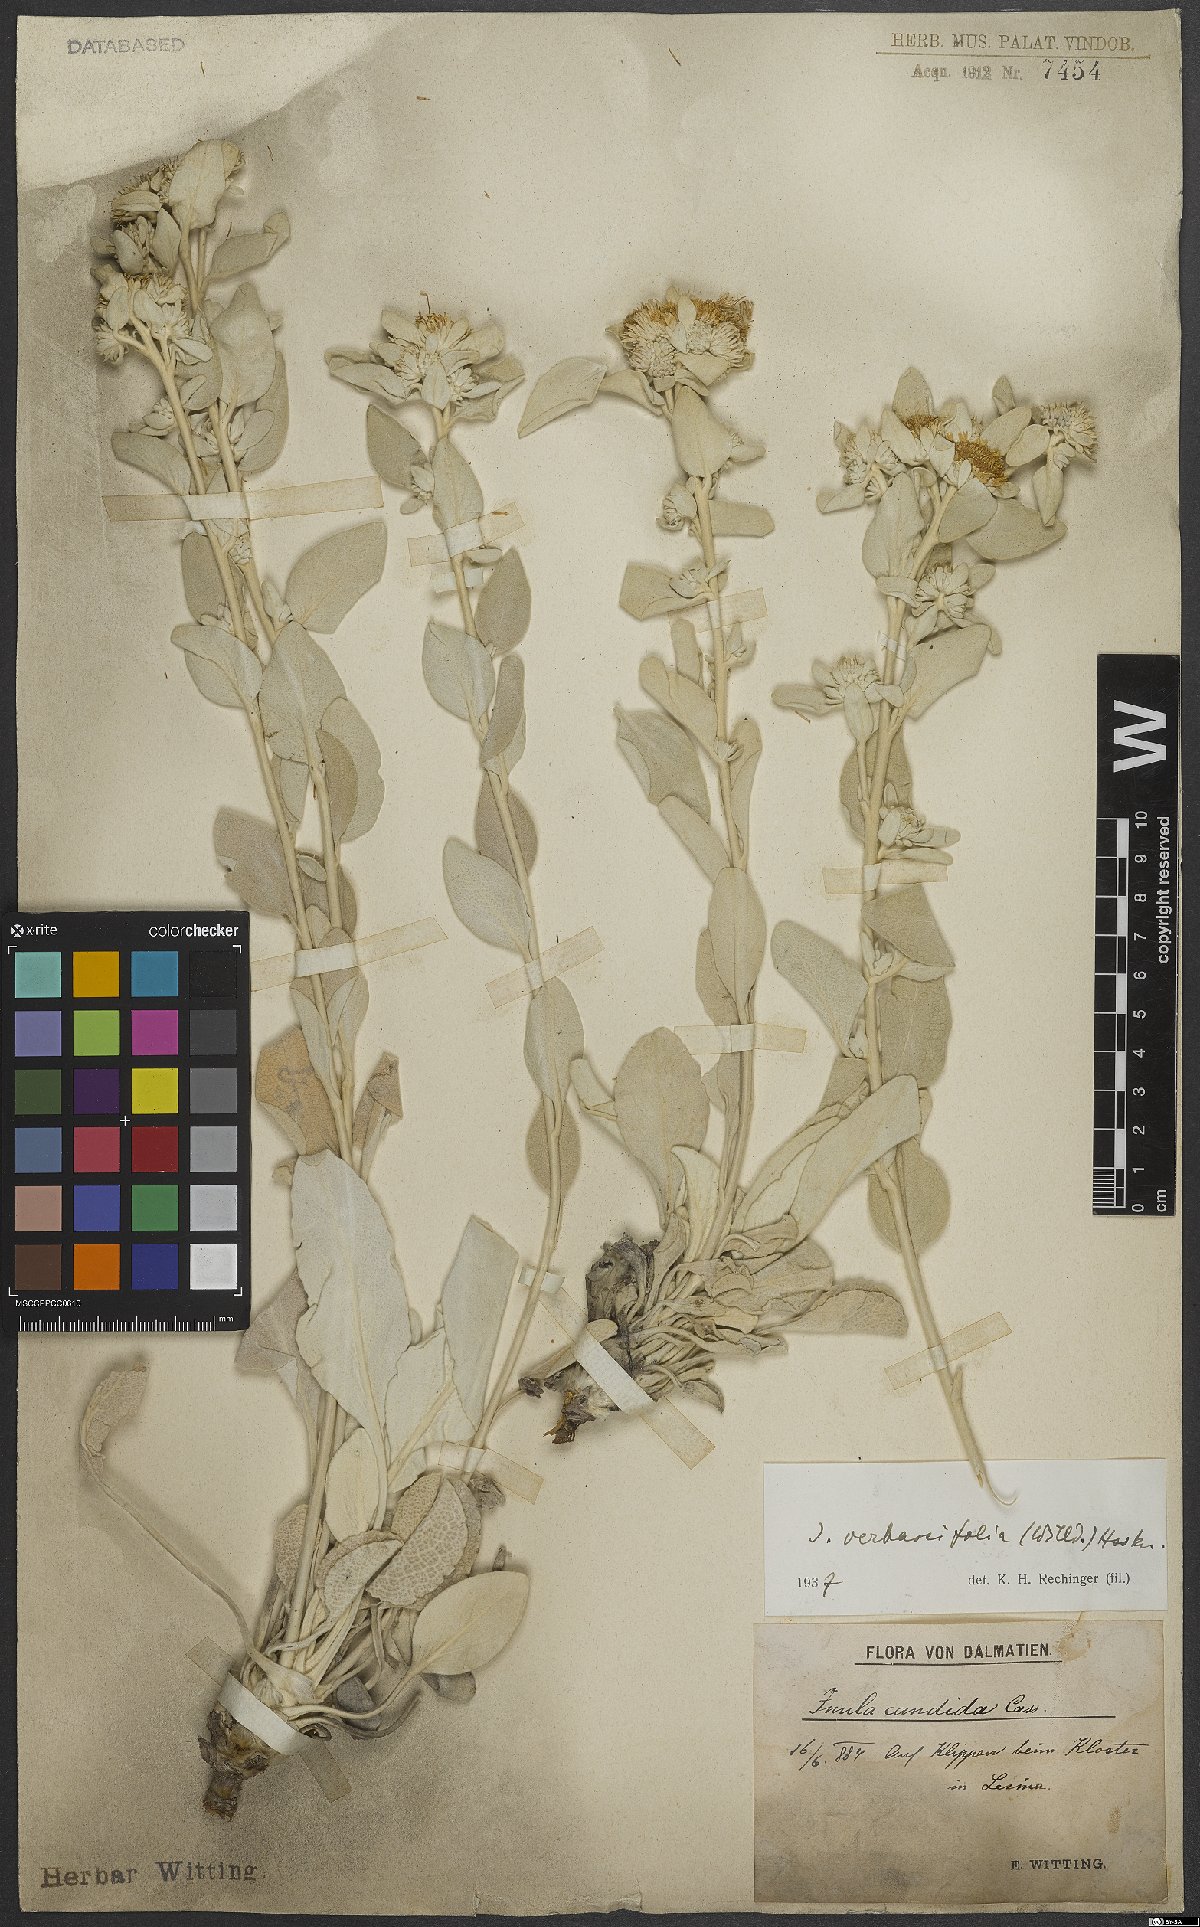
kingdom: Plantae
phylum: Tracheophyta
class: Magnoliopsida
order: Asterales
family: Asteraceae
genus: Pentanema
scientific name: Pentanema verbascifolium
